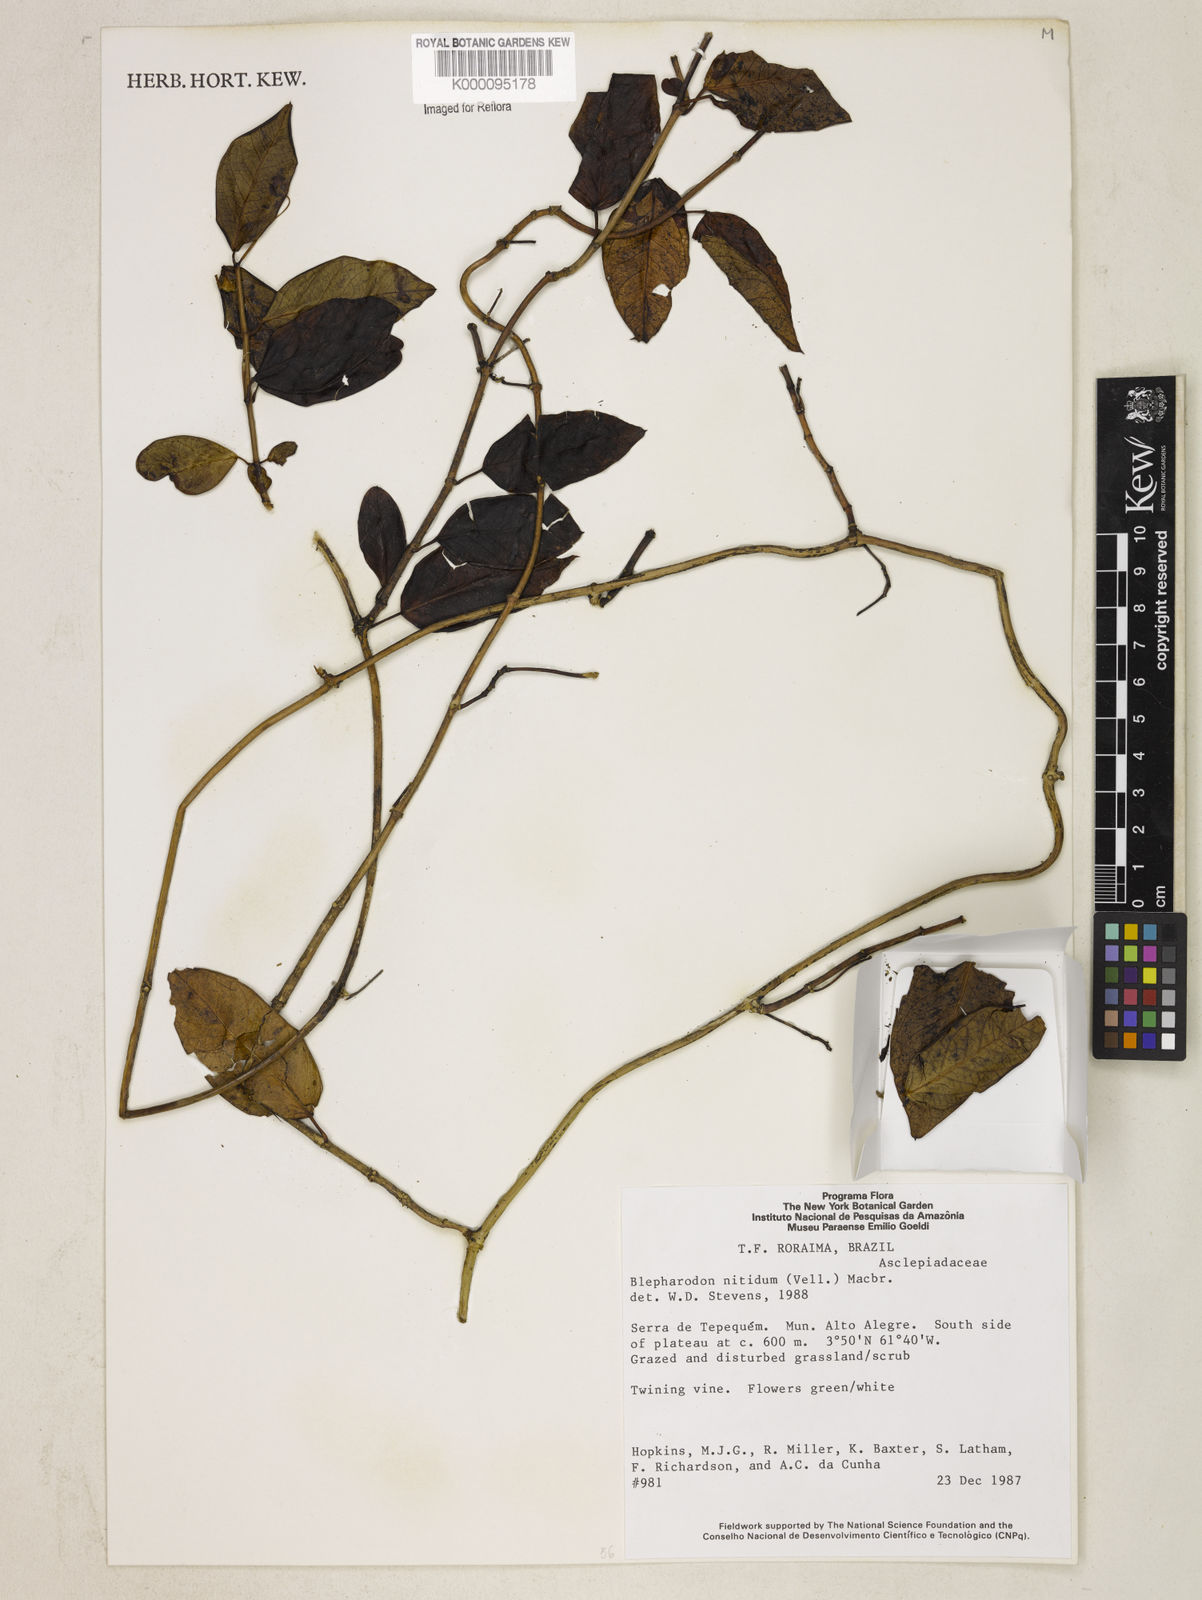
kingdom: Plantae
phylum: Tracheophyta
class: Magnoliopsida
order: Gentianales
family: Apocynaceae
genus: Blepharodon
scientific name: Blepharodon pictum
